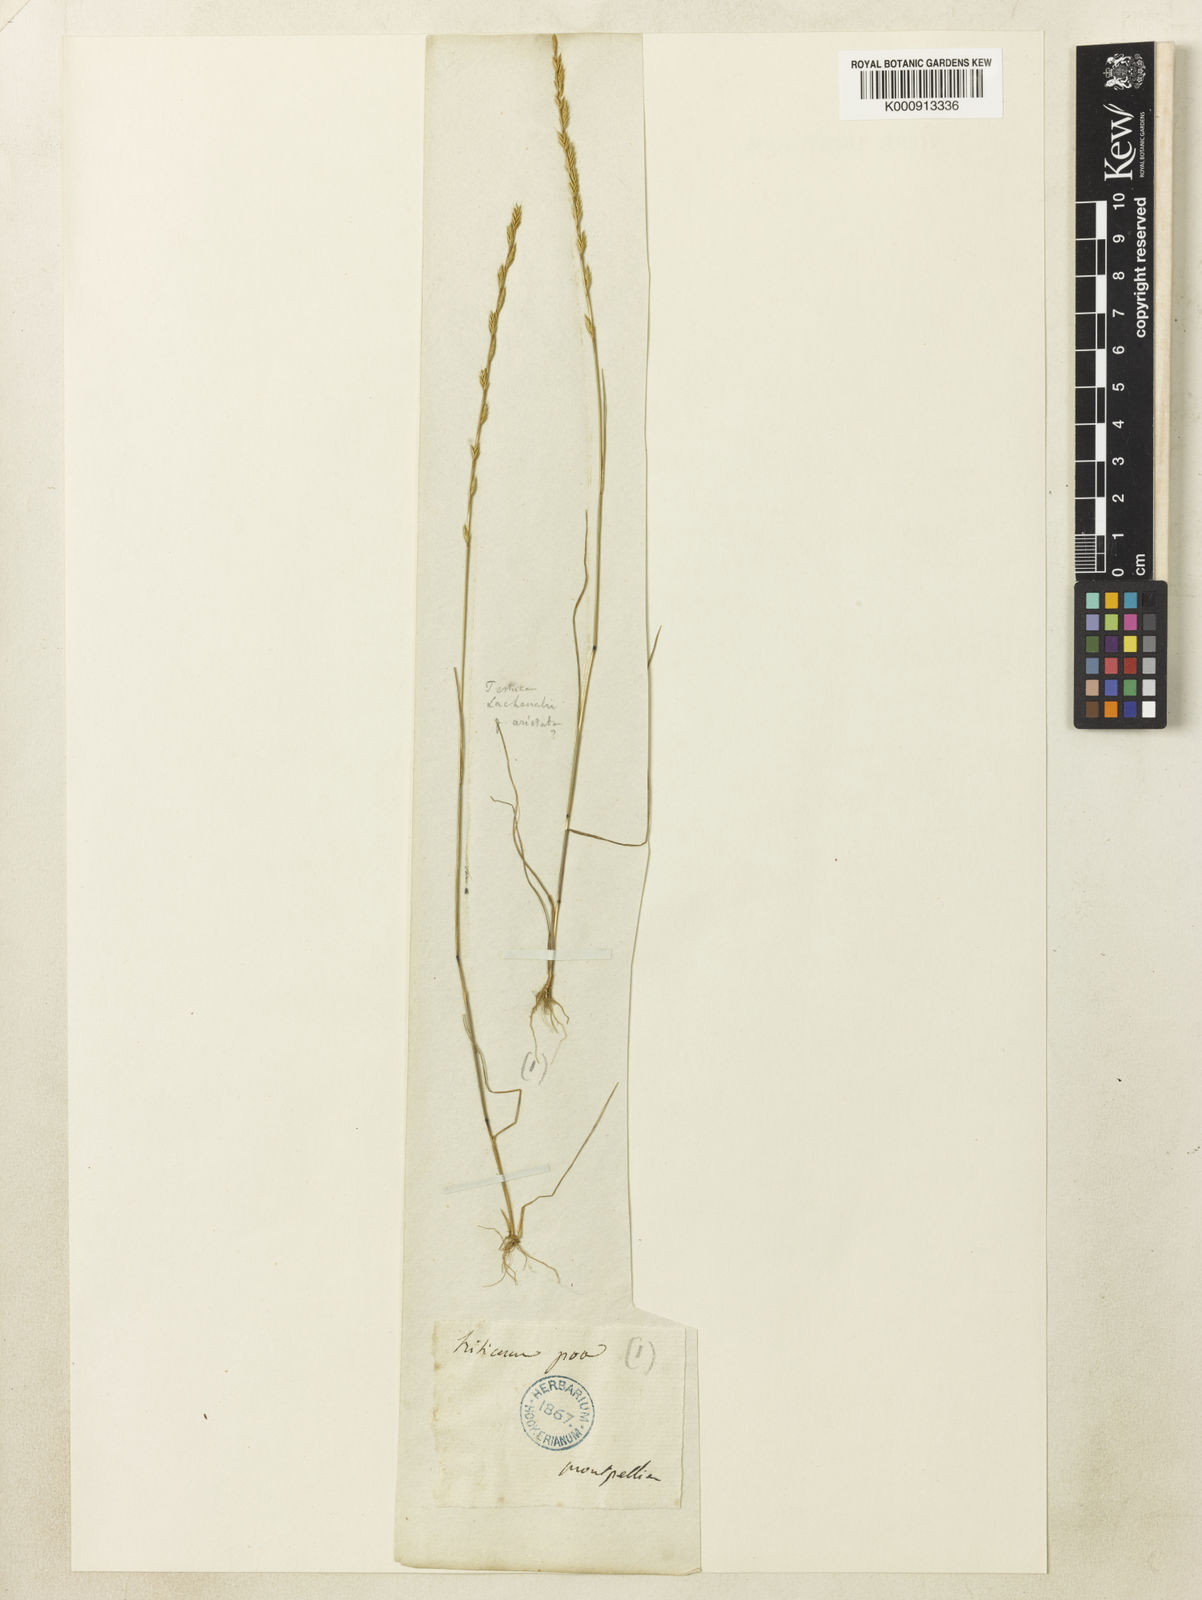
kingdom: Plantae
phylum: Tracheophyta
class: Liliopsida
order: Poales
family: Poaceae
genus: Festuca
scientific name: Festuca lachenalii
